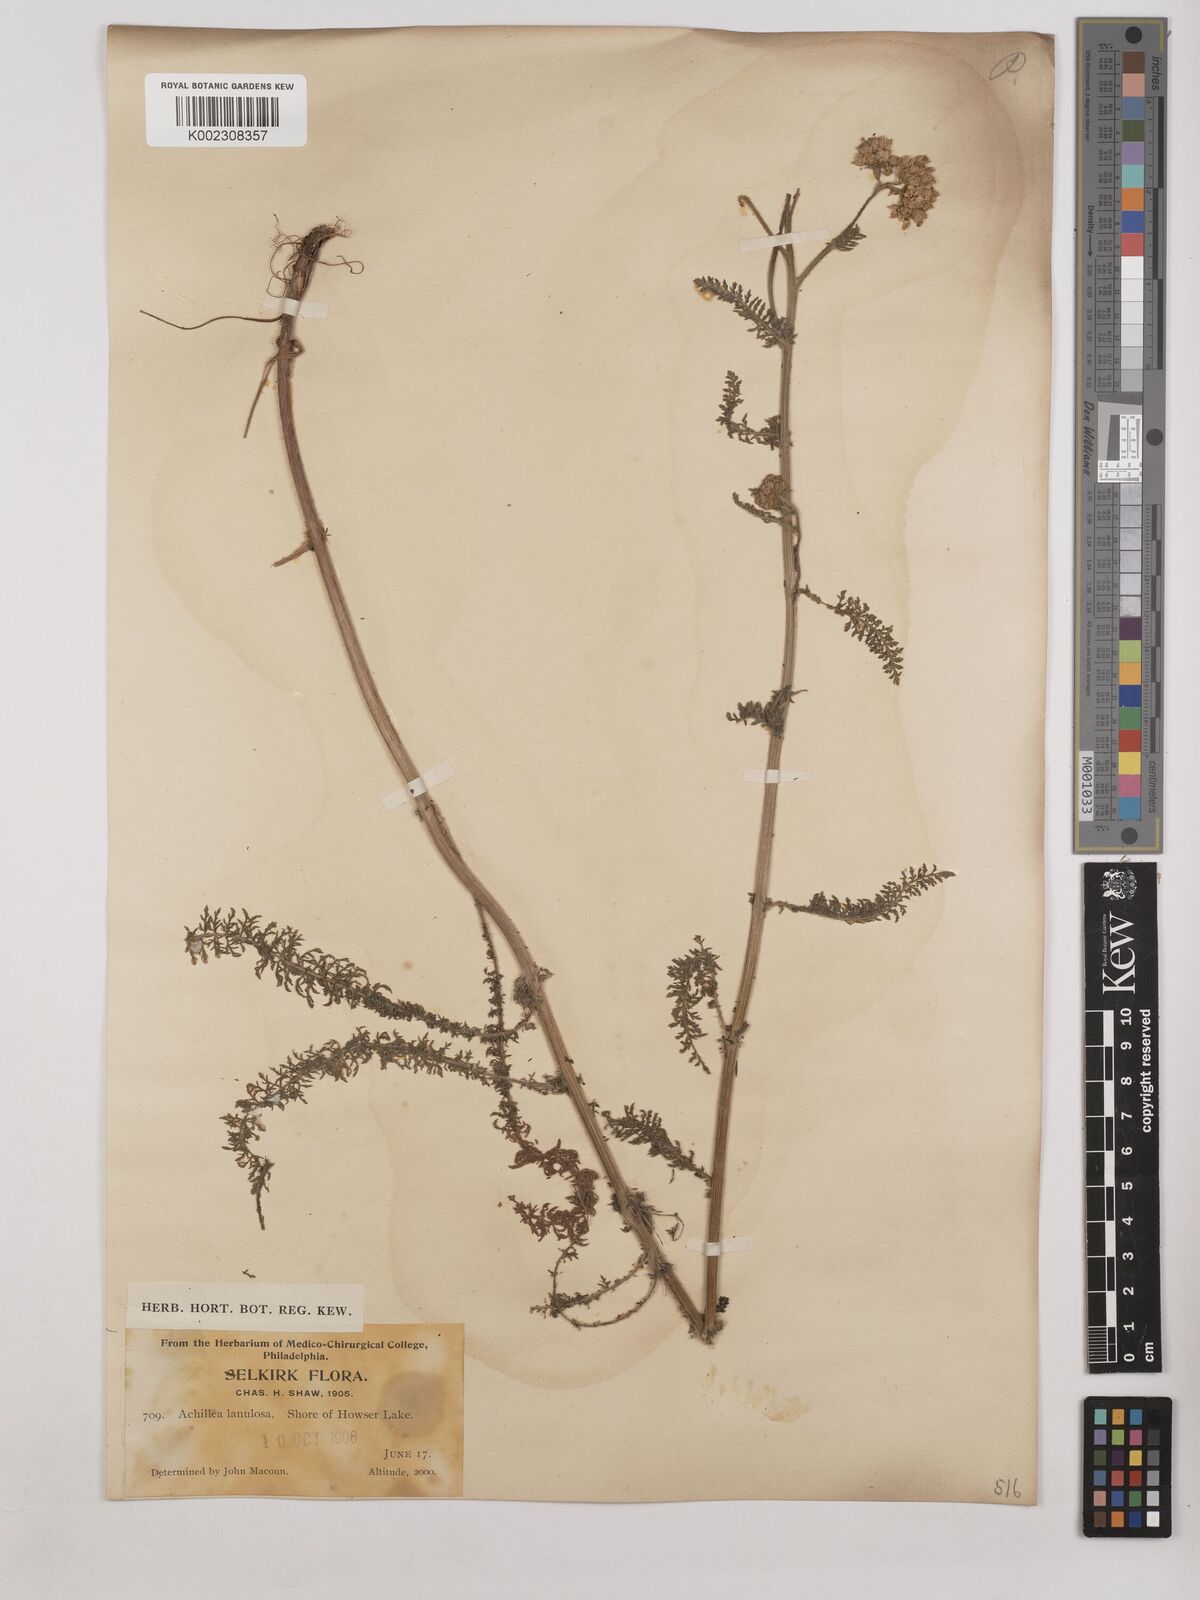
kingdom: Plantae
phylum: Tracheophyta
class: Magnoliopsida
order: Asterales
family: Asteraceae
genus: Achillea
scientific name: Achillea millefolium
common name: Yarrow
